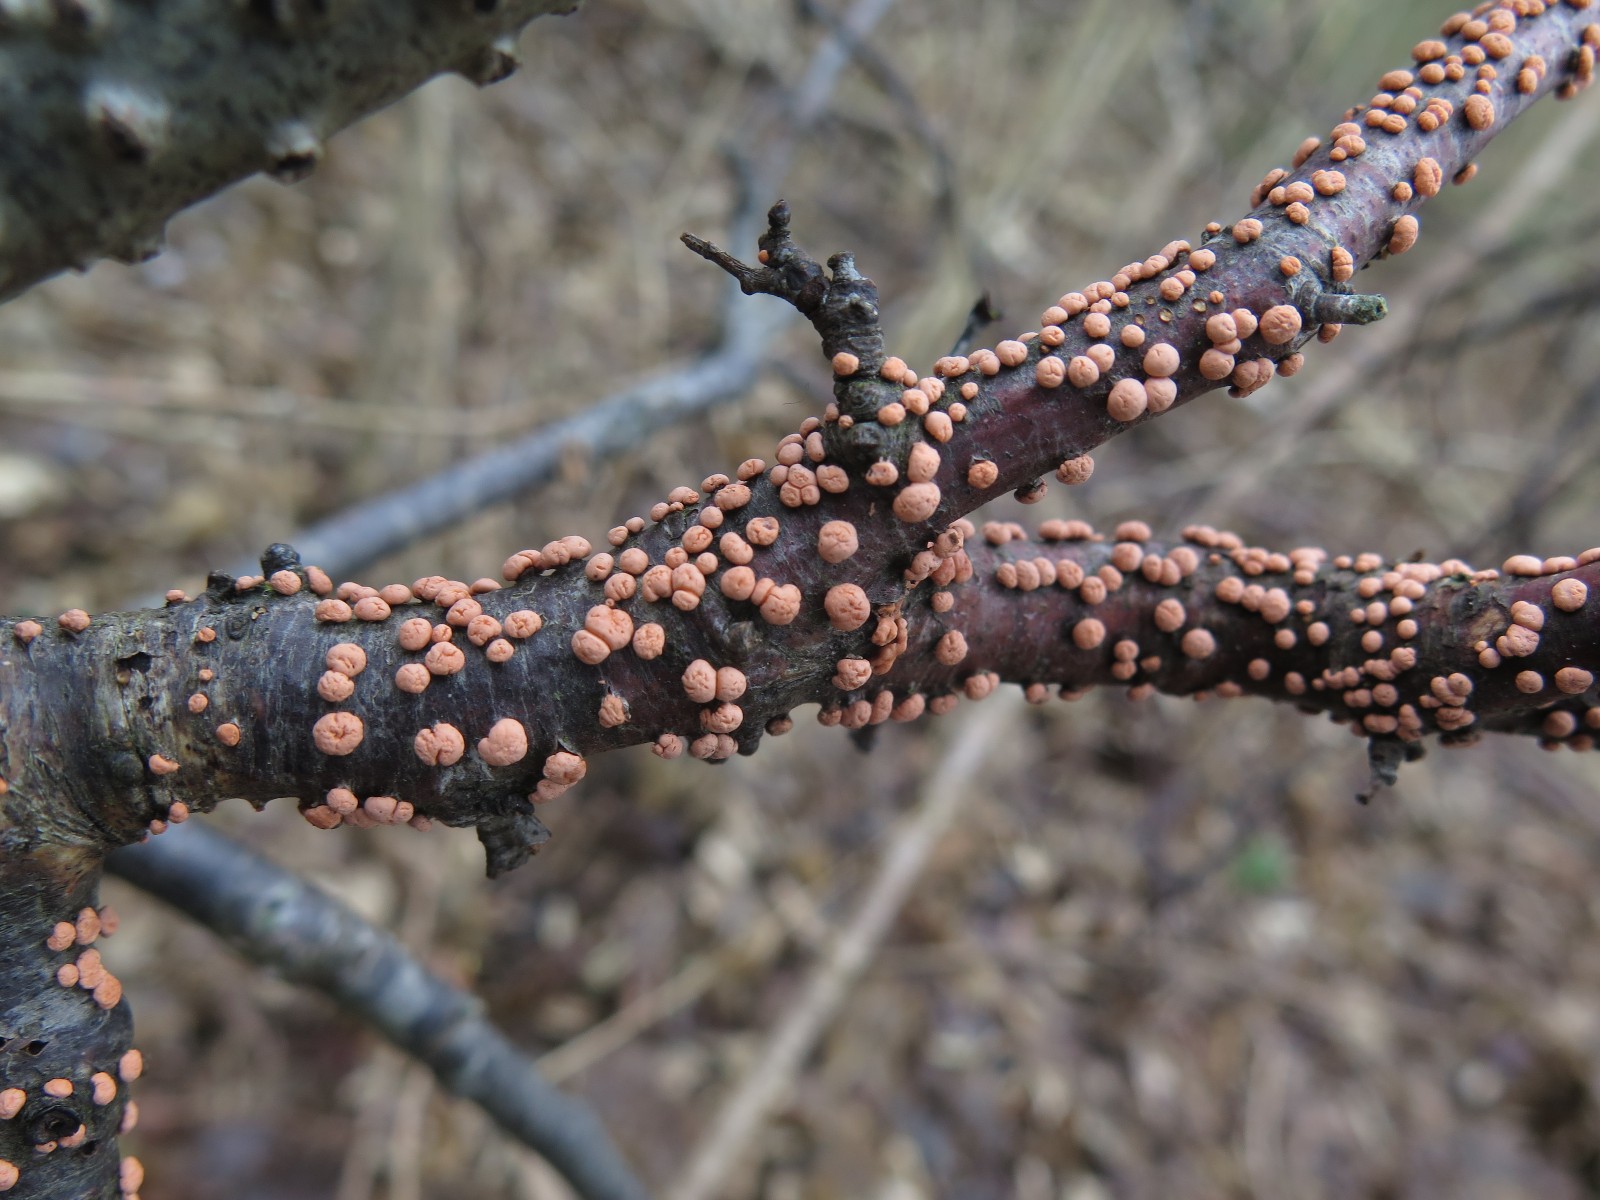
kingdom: Fungi
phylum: Ascomycota
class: Sordariomycetes
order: Hypocreales
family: Nectriaceae
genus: Nectria
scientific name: Nectria cinnabarina
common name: almindelig cinnobersvamp
